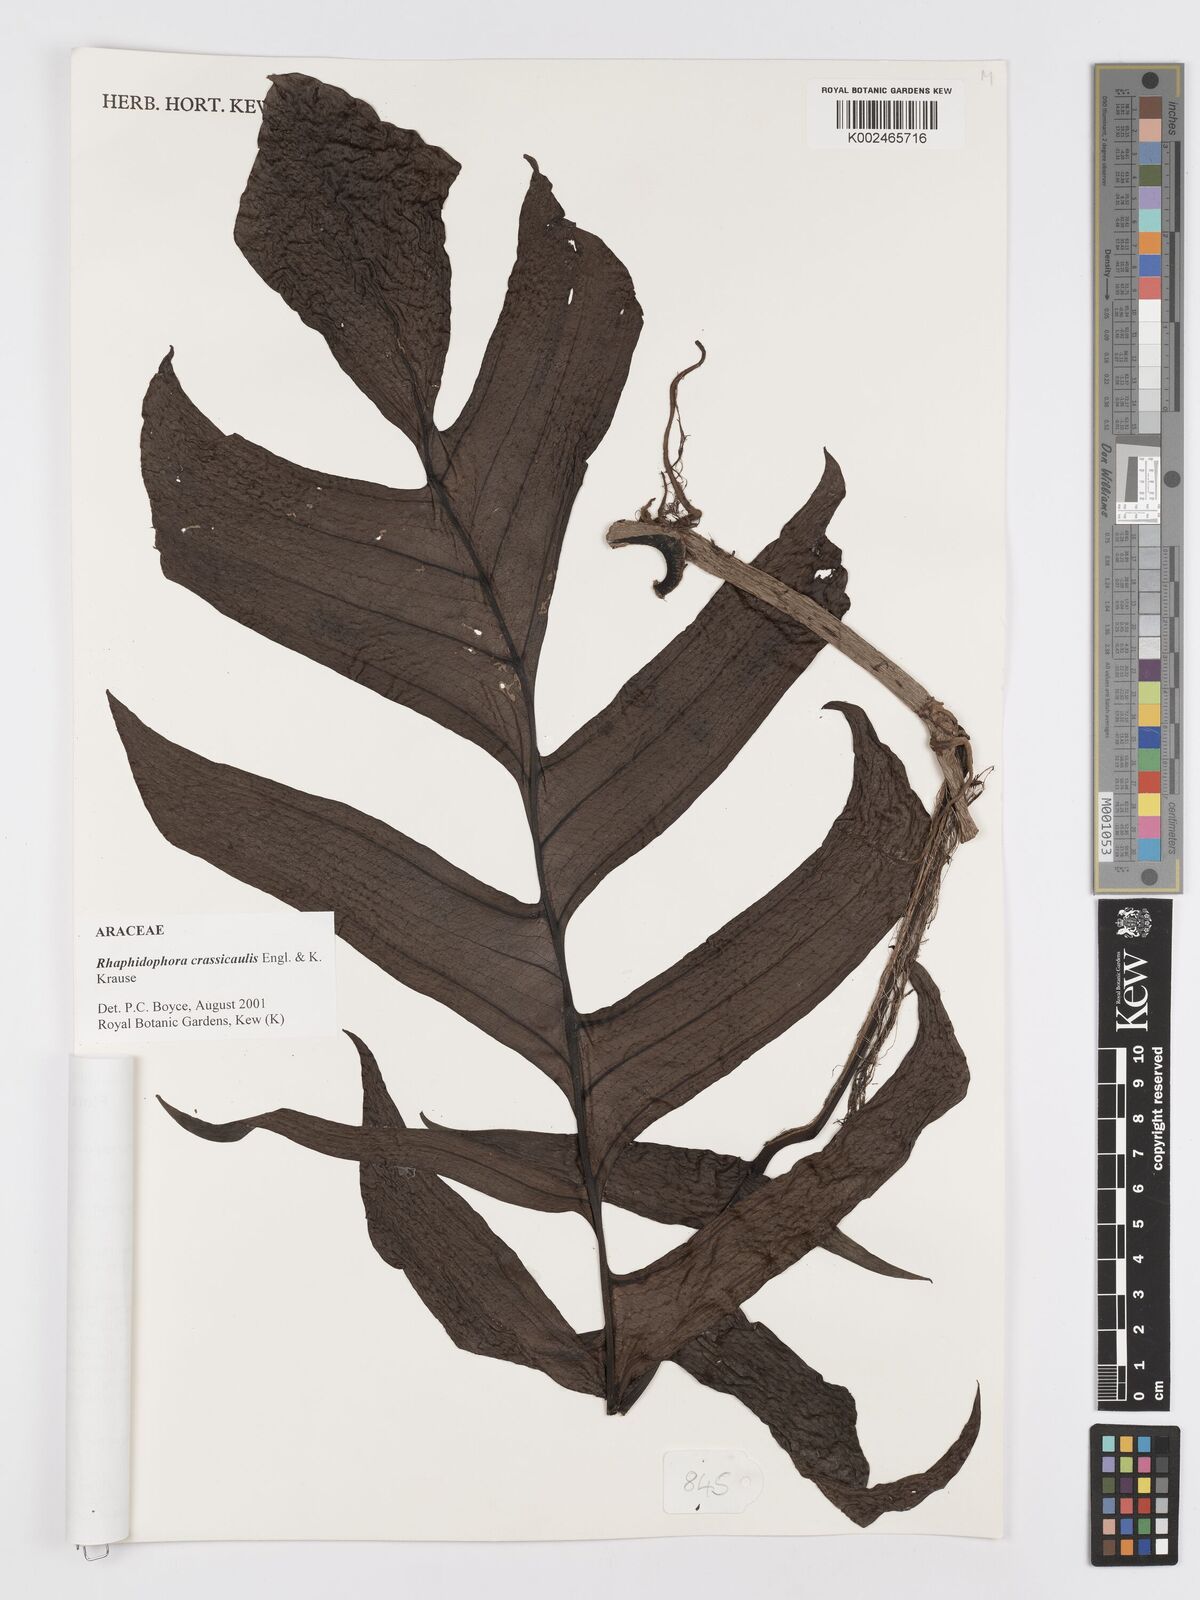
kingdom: Plantae
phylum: Tracheophyta
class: Liliopsida
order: Alismatales
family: Araceae
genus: Rhaphidophora
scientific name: Rhaphidophora crassicaulis
